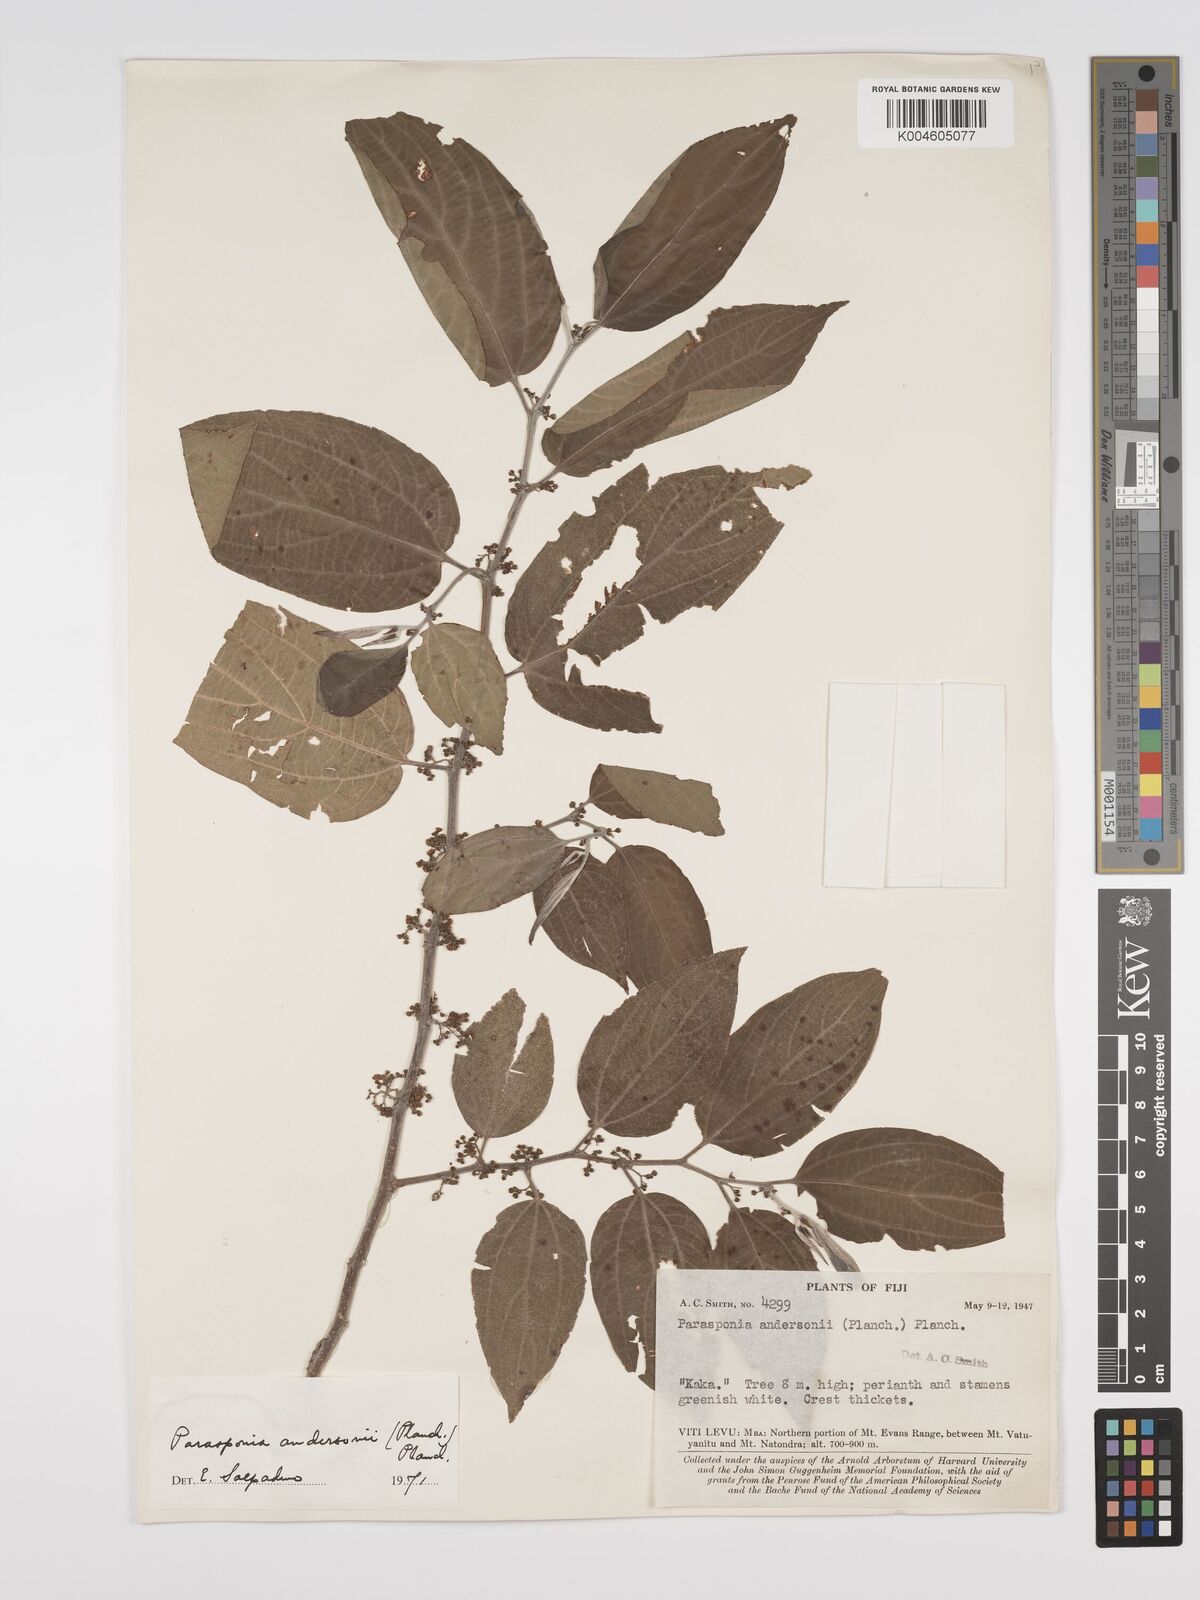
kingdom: Plantae
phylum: Tracheophyta
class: Magnoliopsida
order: Rosales
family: Cannabaceae
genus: Trema
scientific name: Trema andersonii
